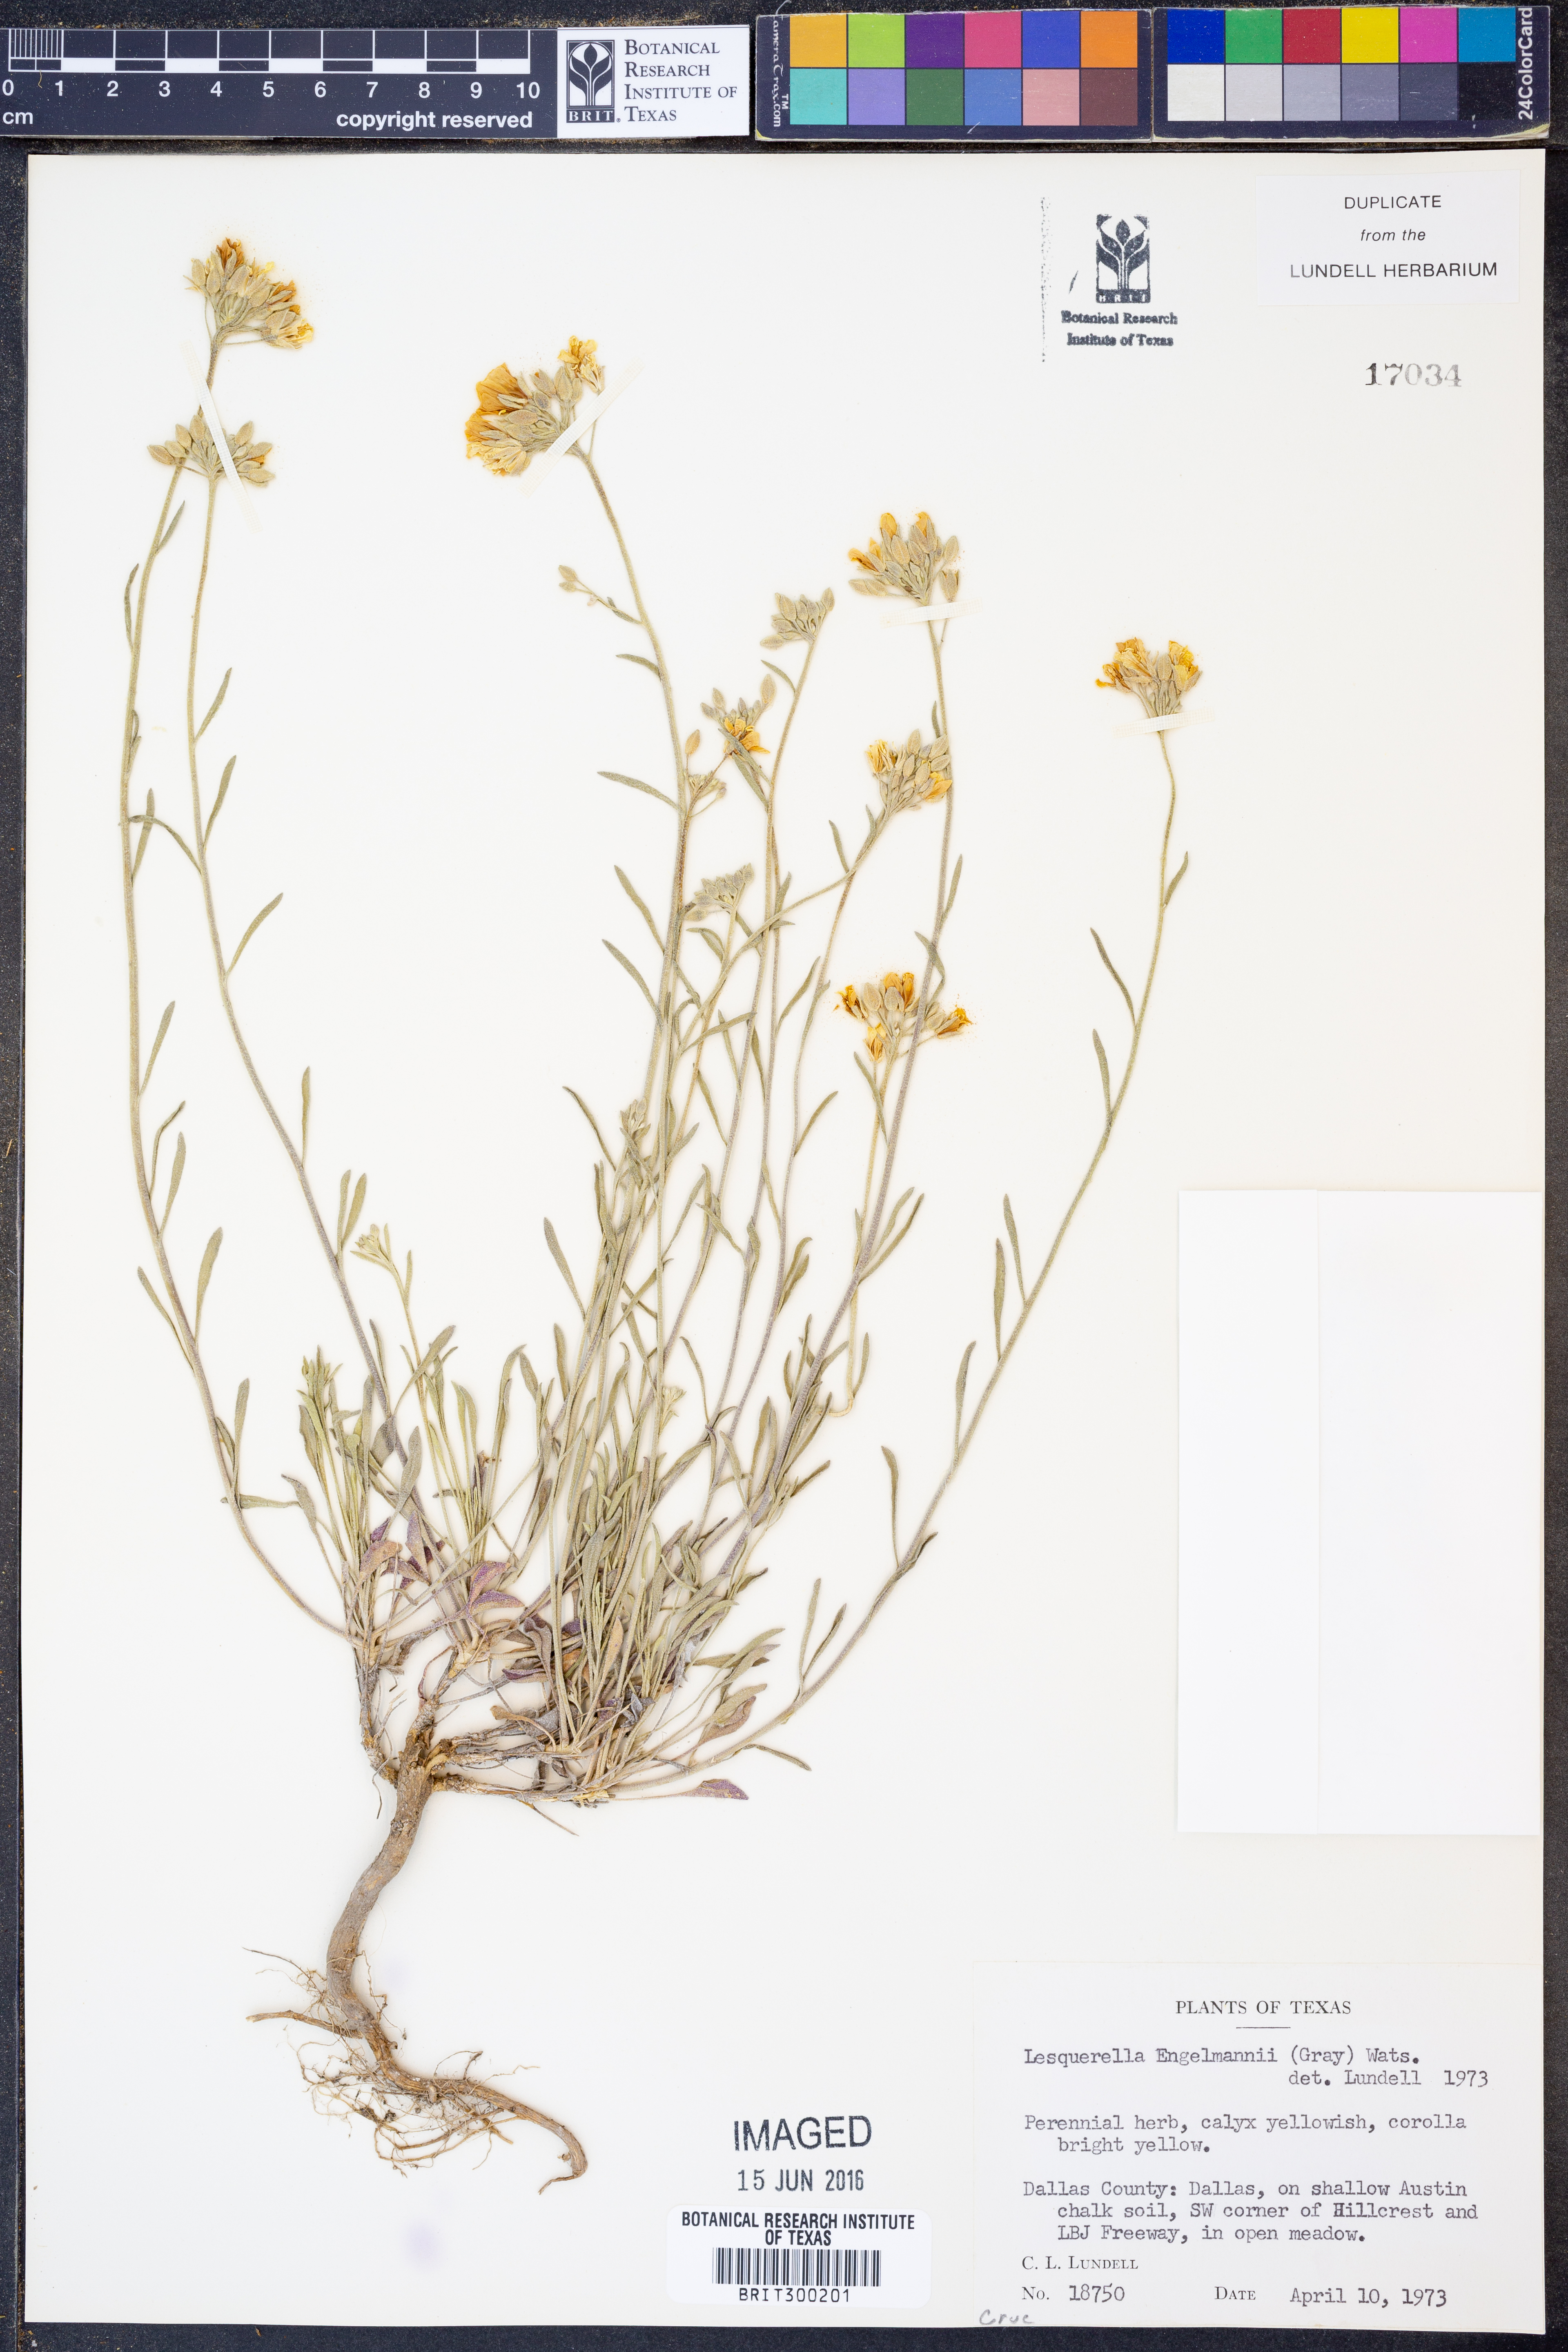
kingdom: Plantae
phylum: Tracheophyta
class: Magnoliopsida
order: Brassicales
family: Brassicaceae
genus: Physaria
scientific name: Physaria engelmannii
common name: Engelmann's bladderpod
